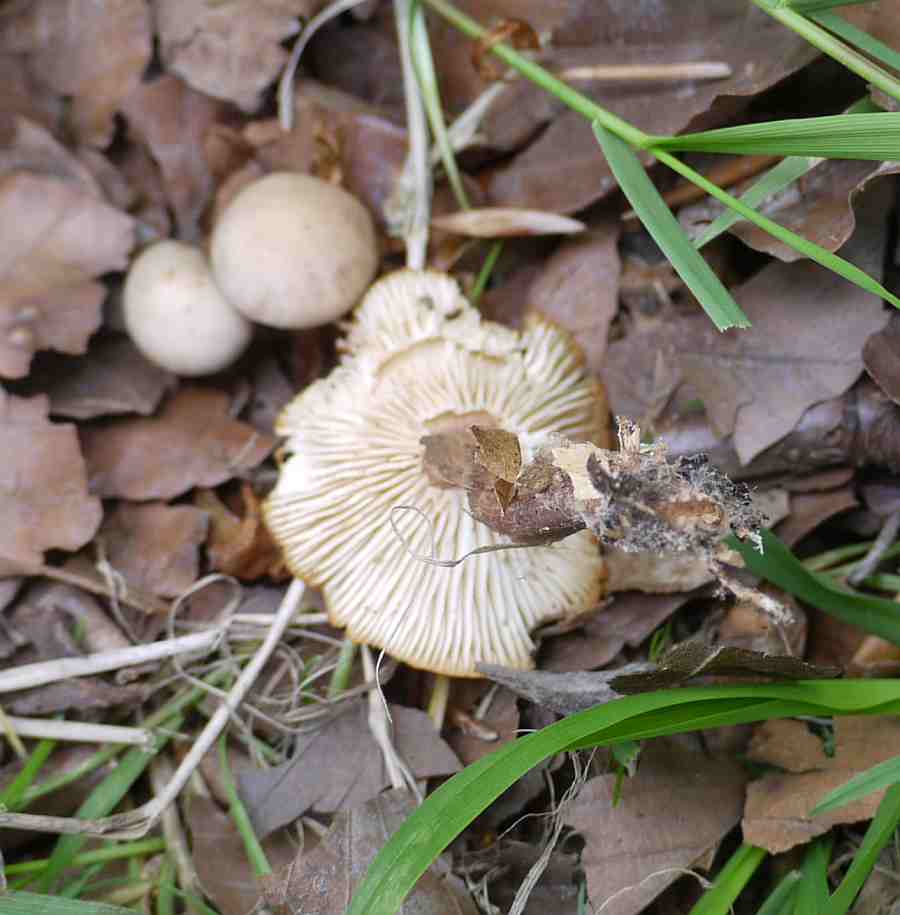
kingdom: Fungi
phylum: Basidiomycota
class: Agaricomycetes
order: Agaricales
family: Omphalotaceae
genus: Gymnopus
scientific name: Gymnopus aquosus
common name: bleg fladhat
